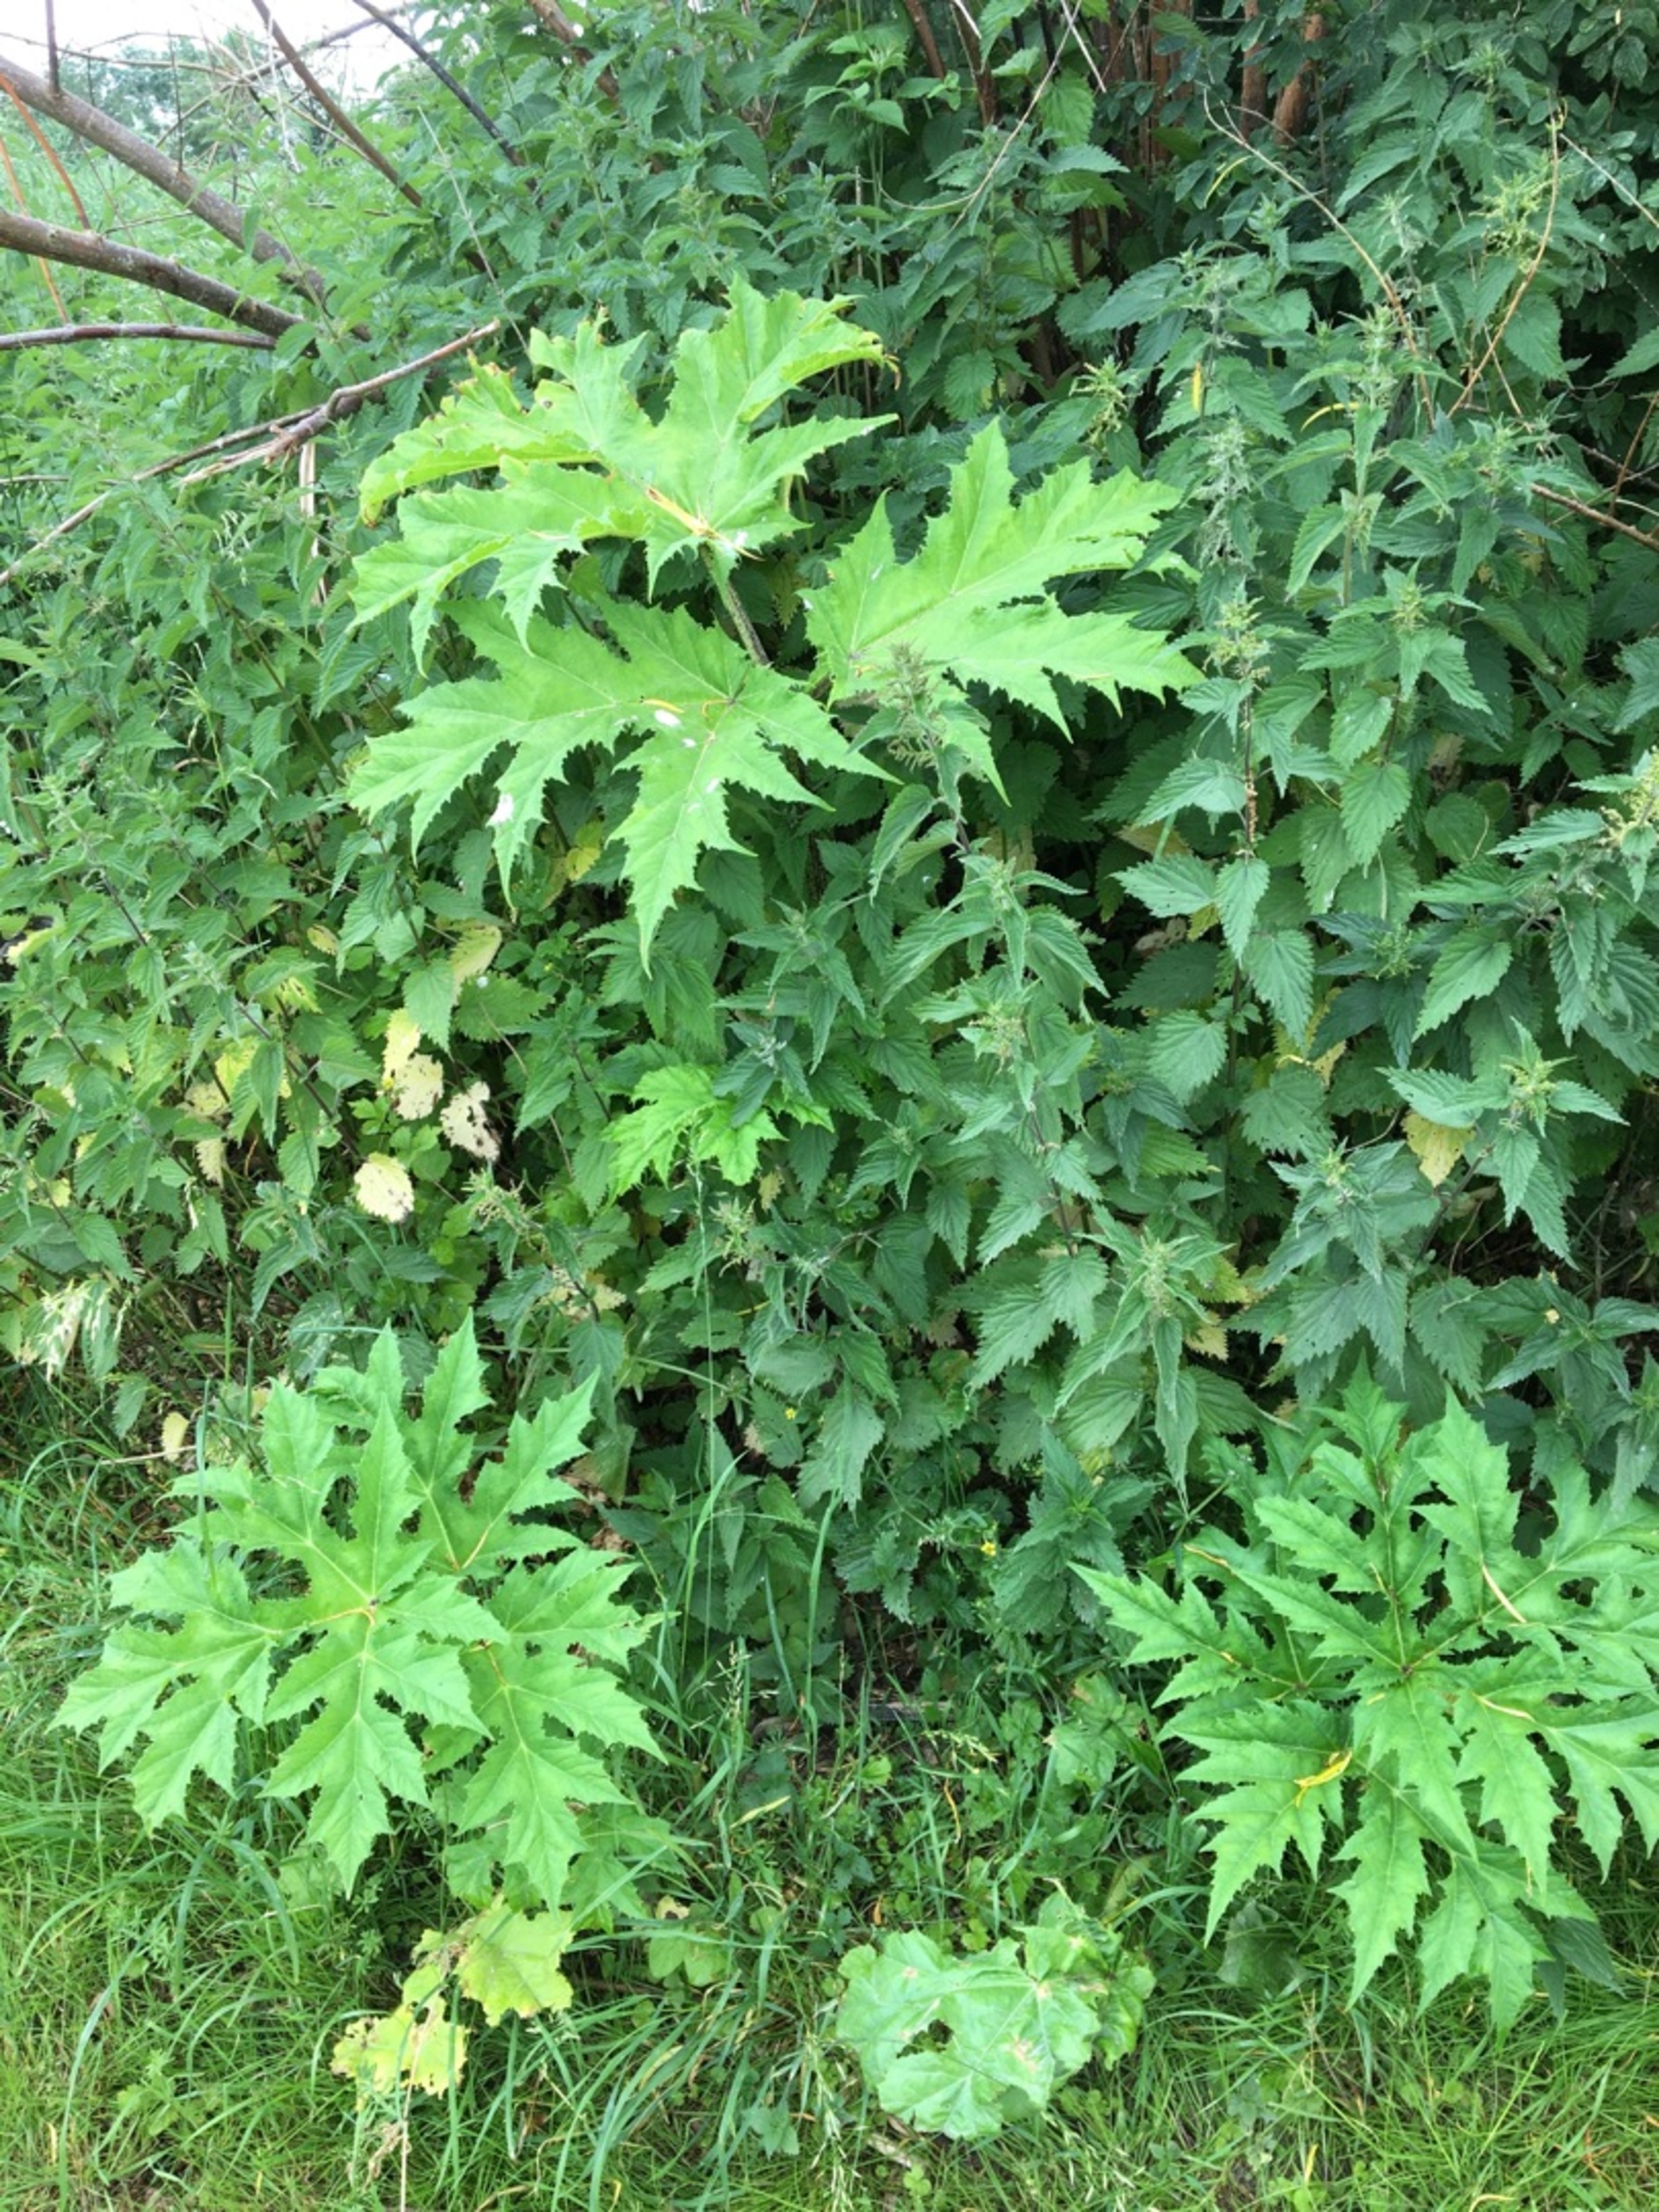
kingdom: Plantae
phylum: Tracheophyta
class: Magnoliopsida
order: Apiales
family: Apiaceae
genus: Heracleum
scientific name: Heracleum mantegazzianum
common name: Kæmpe-bjørneklo
